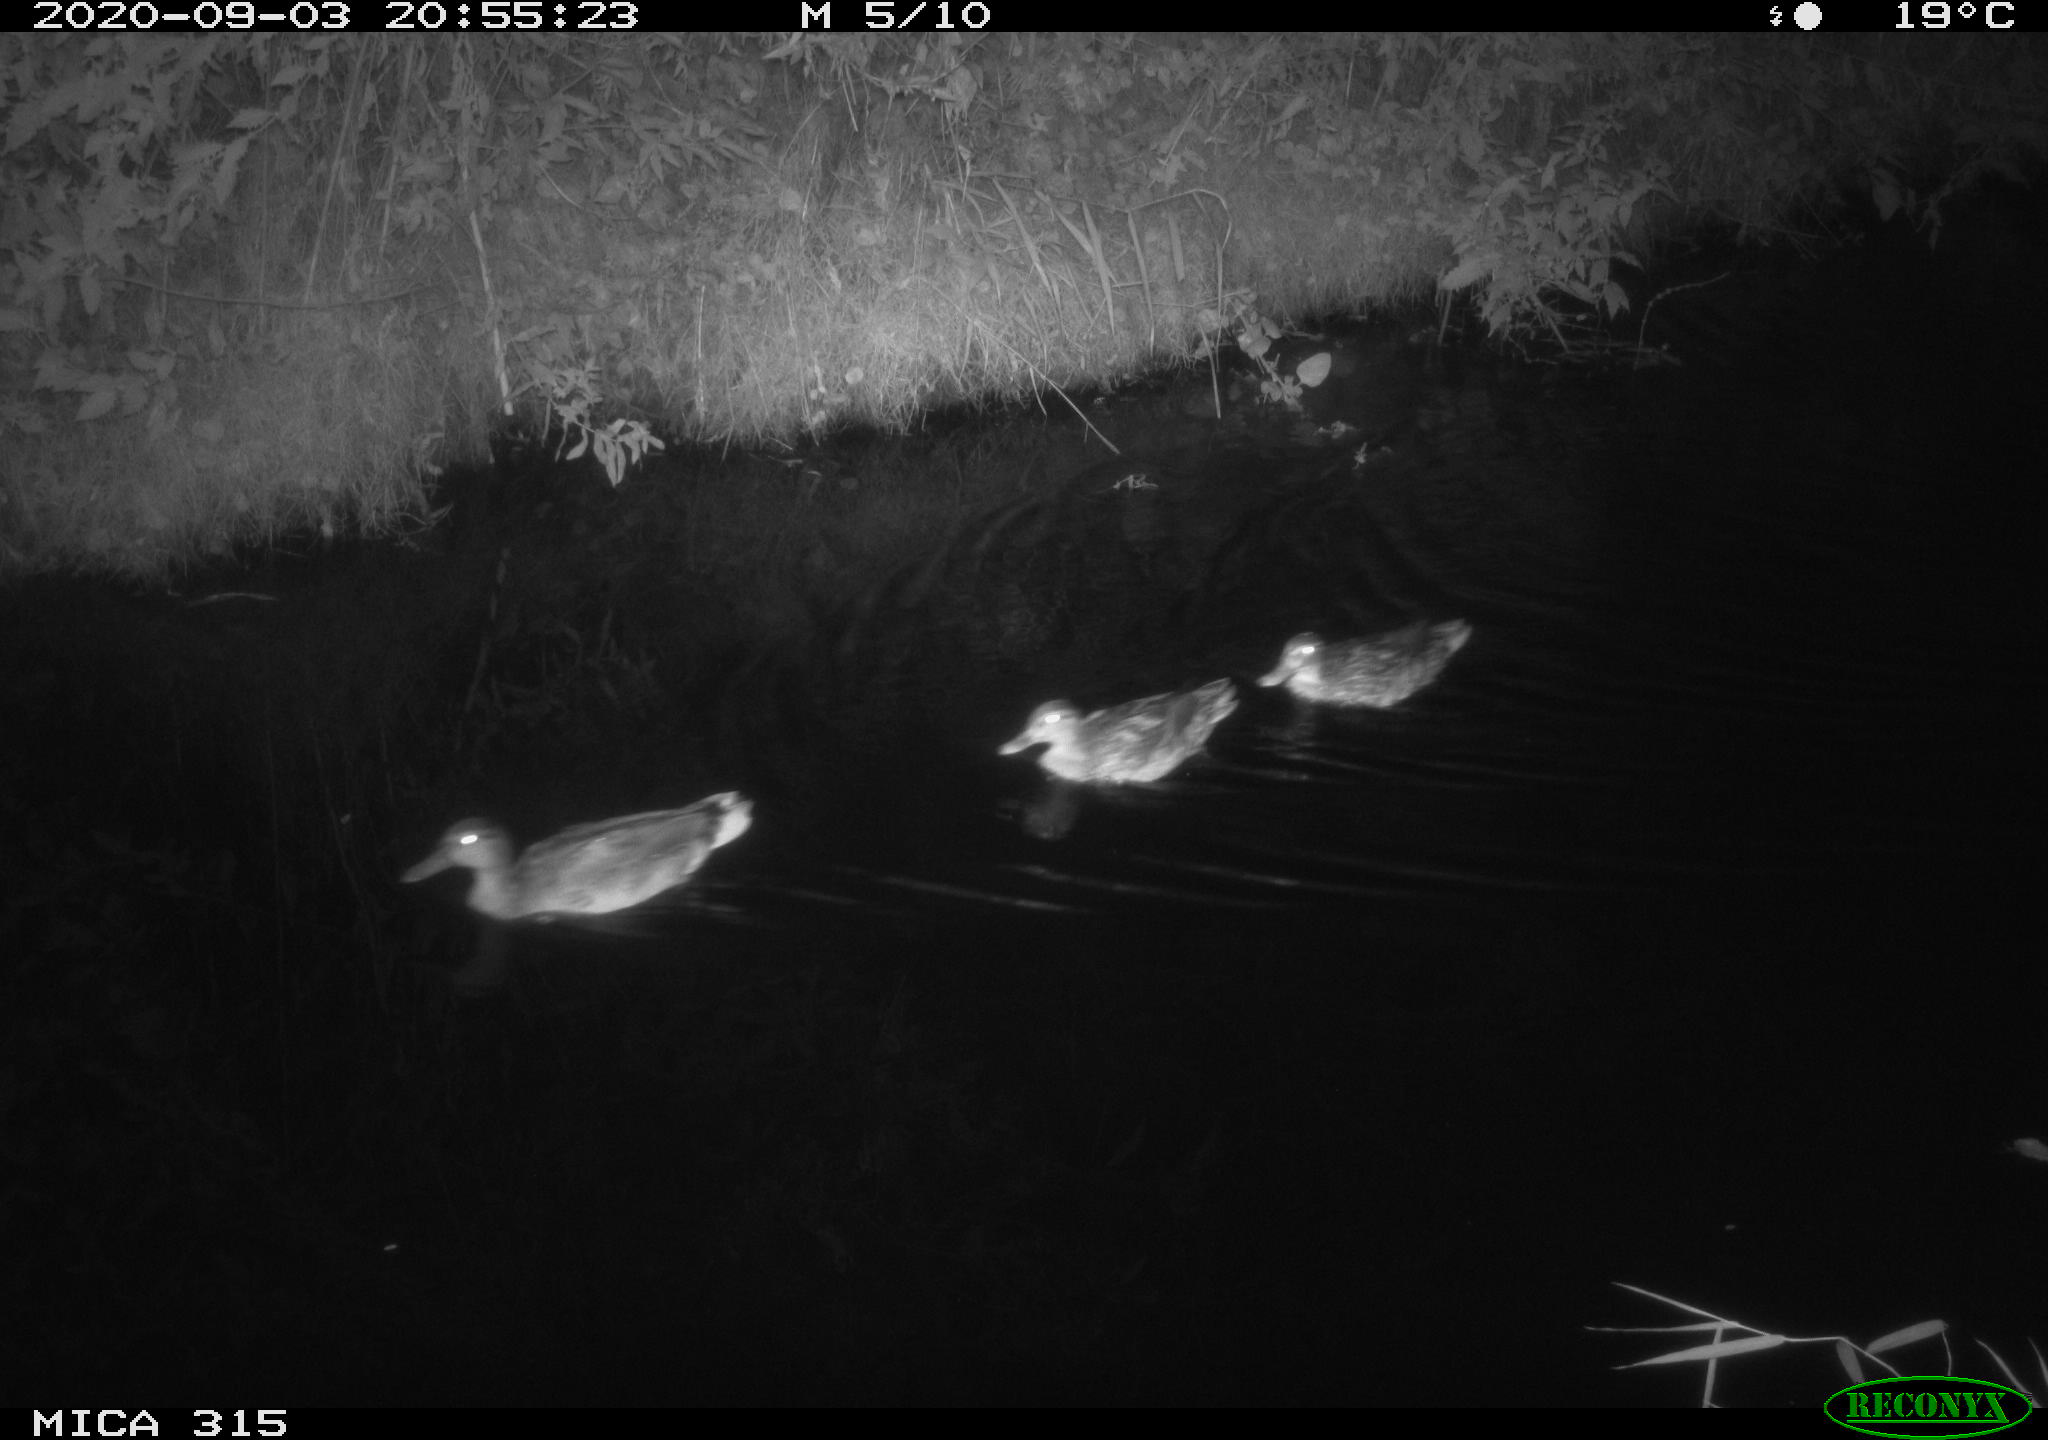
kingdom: Animalia
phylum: Chordata
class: Aves
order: Anseriformes
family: Anatidae
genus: Anas
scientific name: Anas platyrhynchos
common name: Mallard
